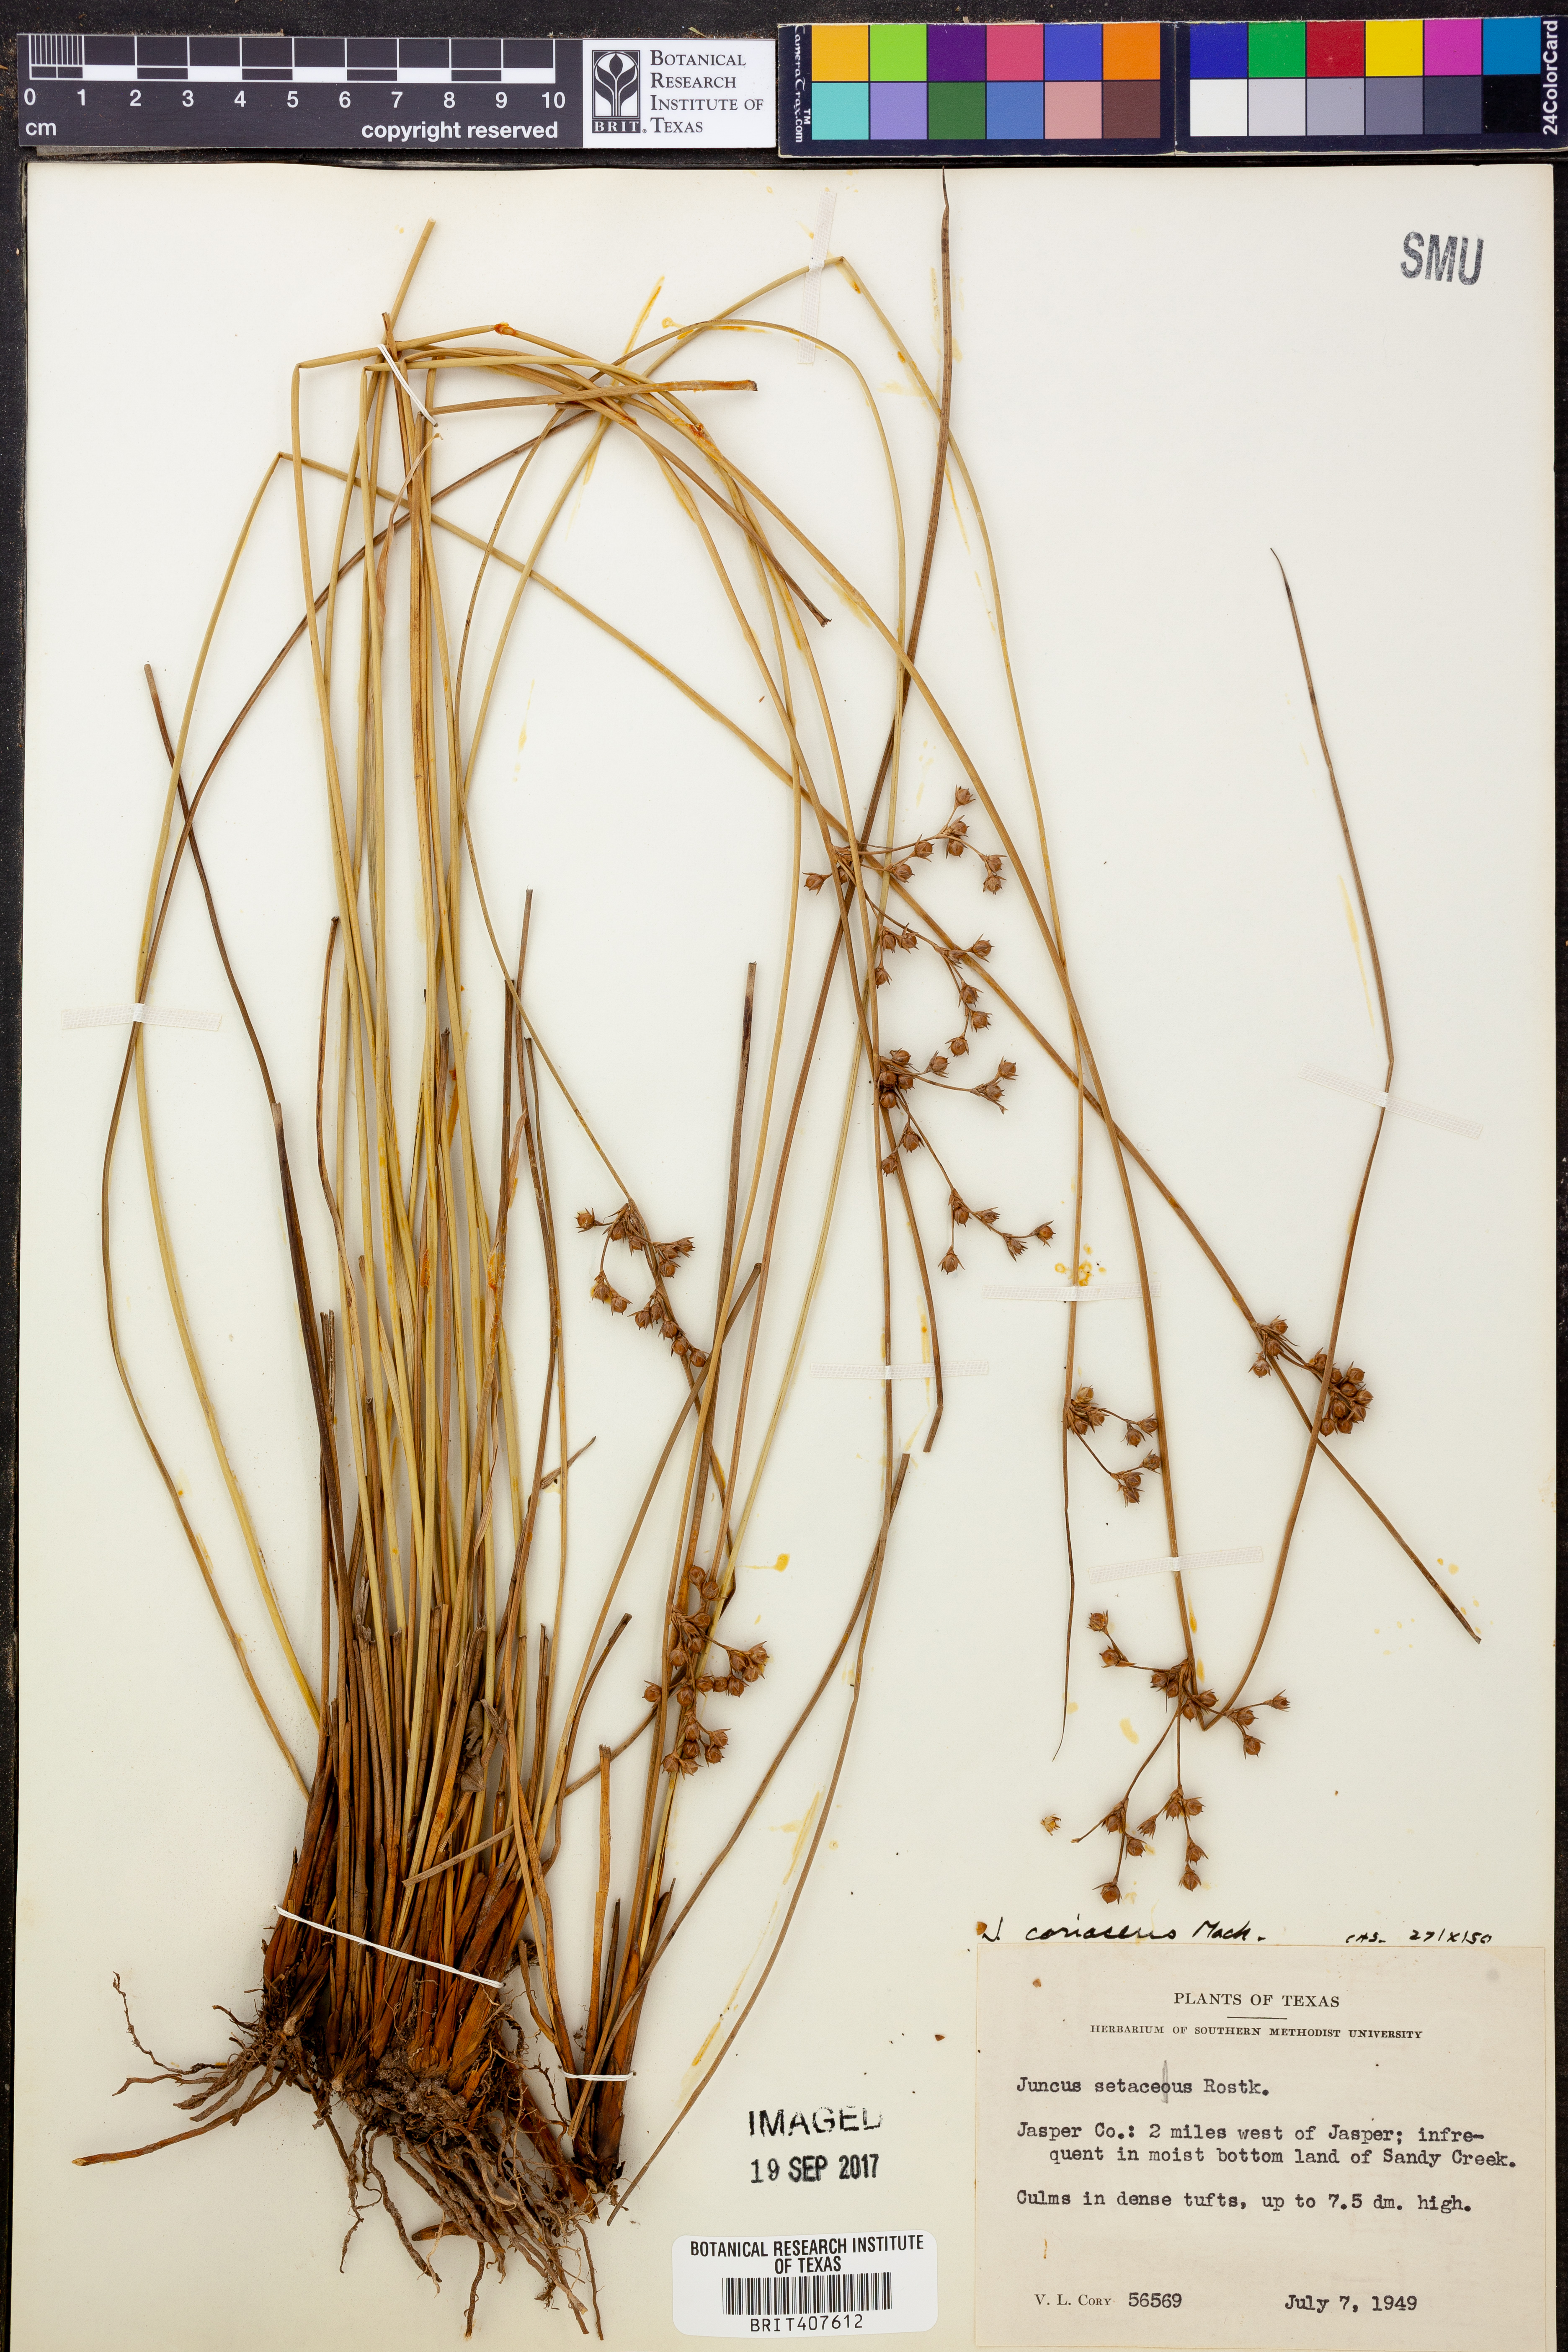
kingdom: Plantae
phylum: Tracheophyta
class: Liliopsida
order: Poales
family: Juncaceae
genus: Juncus
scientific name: Juncus coriaceus
